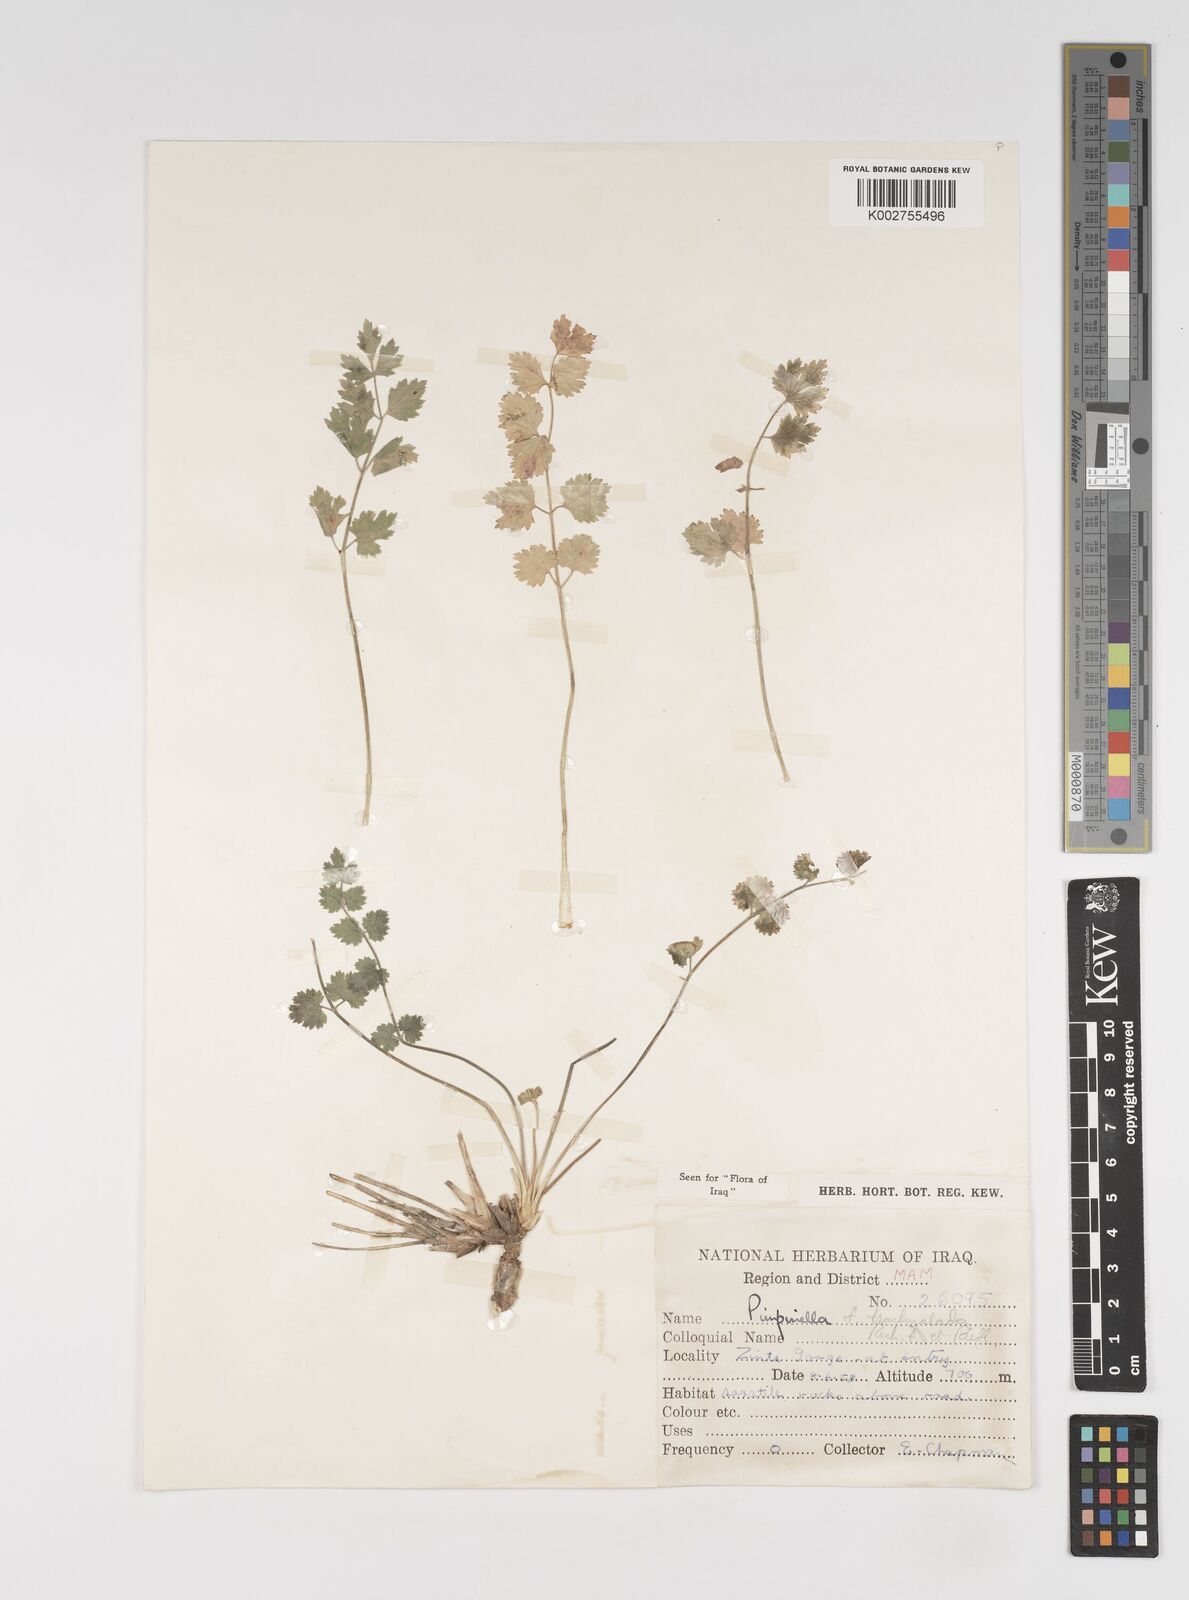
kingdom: Plantae
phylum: Tracheophyta
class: Magnoliopsida
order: Apiales
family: Apiaceae
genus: Pimpinella
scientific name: Pimpinella brachyclada
